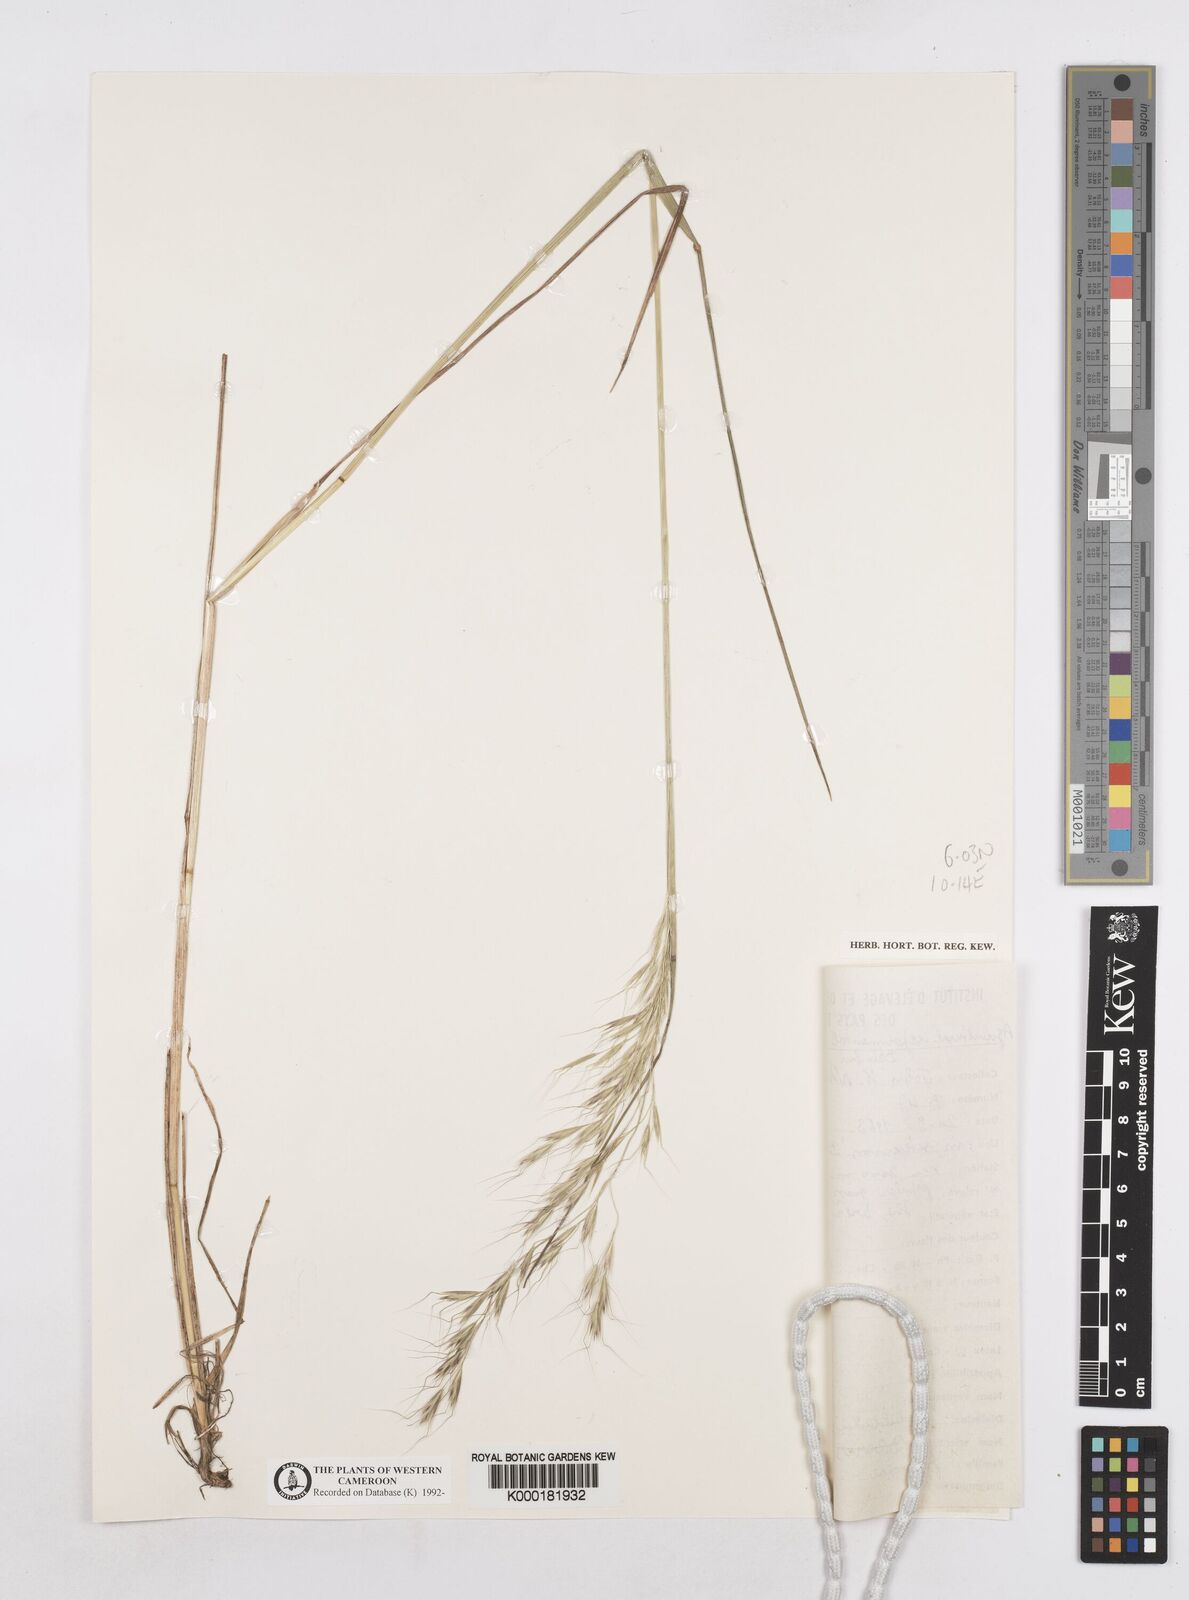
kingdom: Plantae
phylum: Tracheophyta
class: Liliopsida
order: Poales
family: Poaceae
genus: Trisetopsis
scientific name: Trisetopsis elongata
